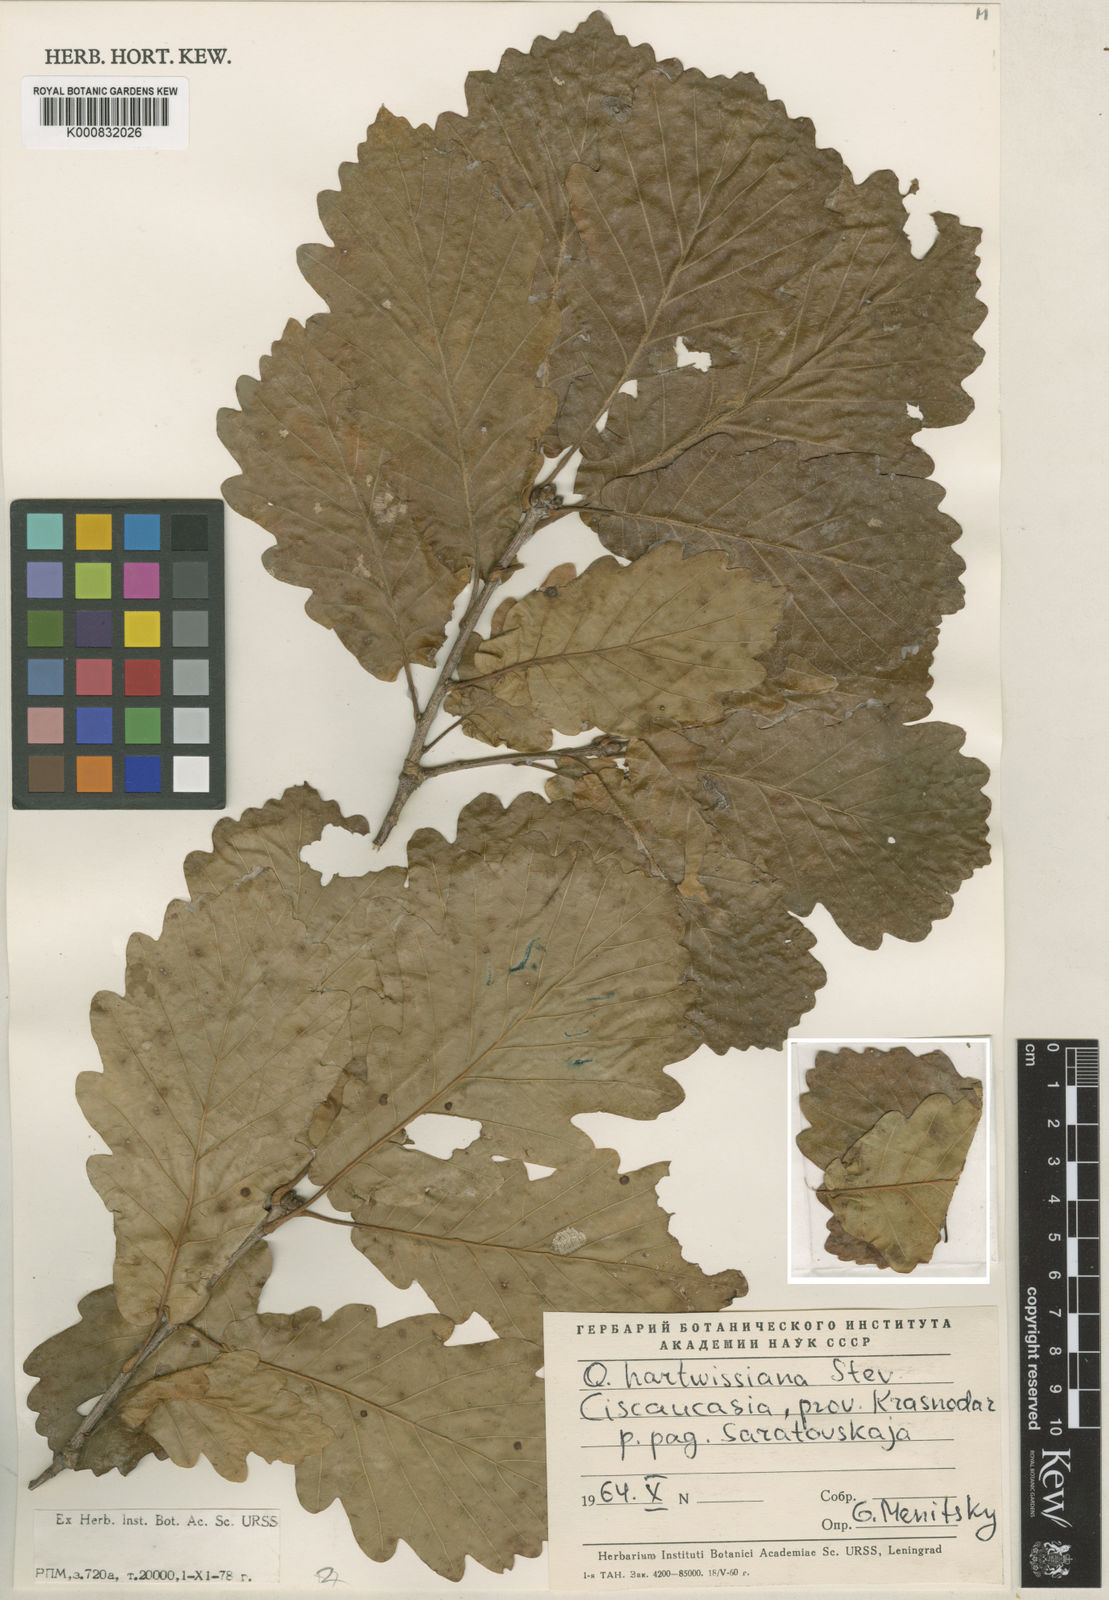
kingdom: Plantae
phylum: Tracheophyta
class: Magnoliopsida
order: Fagales
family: Fagaceae
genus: Quercus
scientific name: Quercus hartwissiana
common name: Strandzha oak
